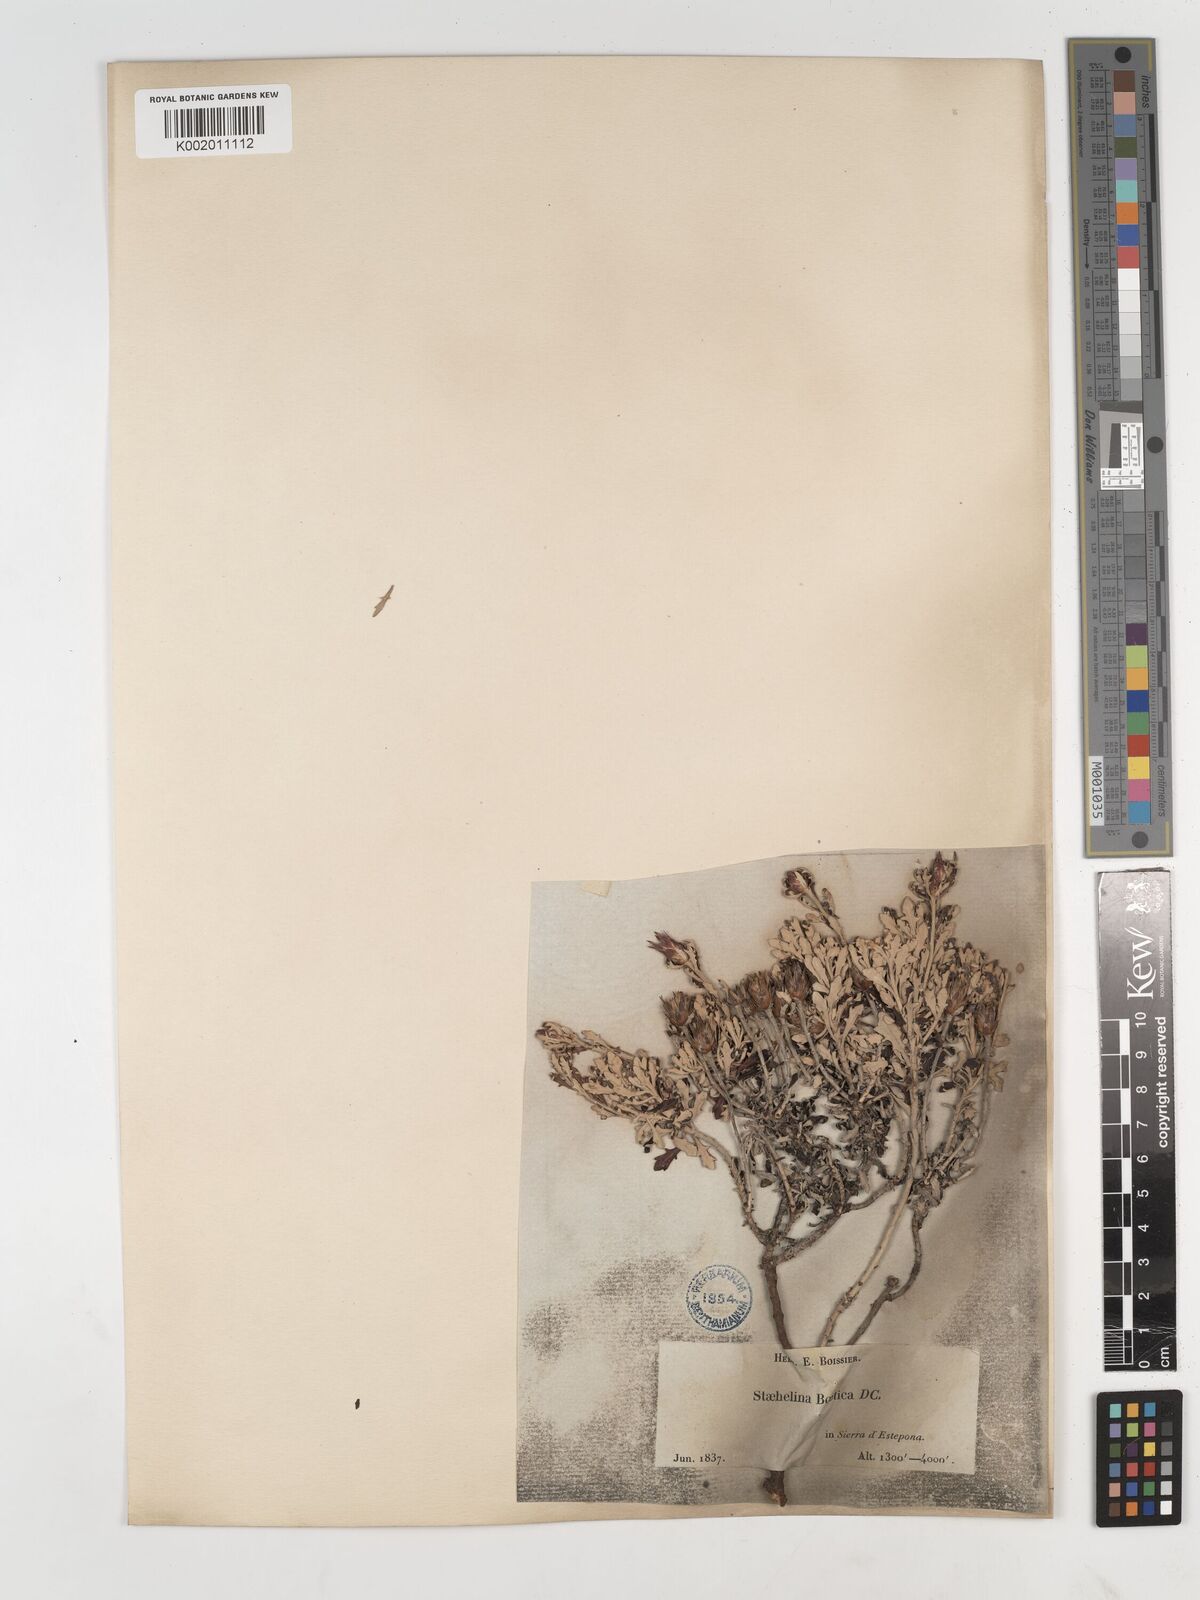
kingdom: Plantae
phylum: Tracheophyta
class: Magnoliopsida
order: Asterales
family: Asteraceae
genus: Staehelina
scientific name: Staehelina baetica
